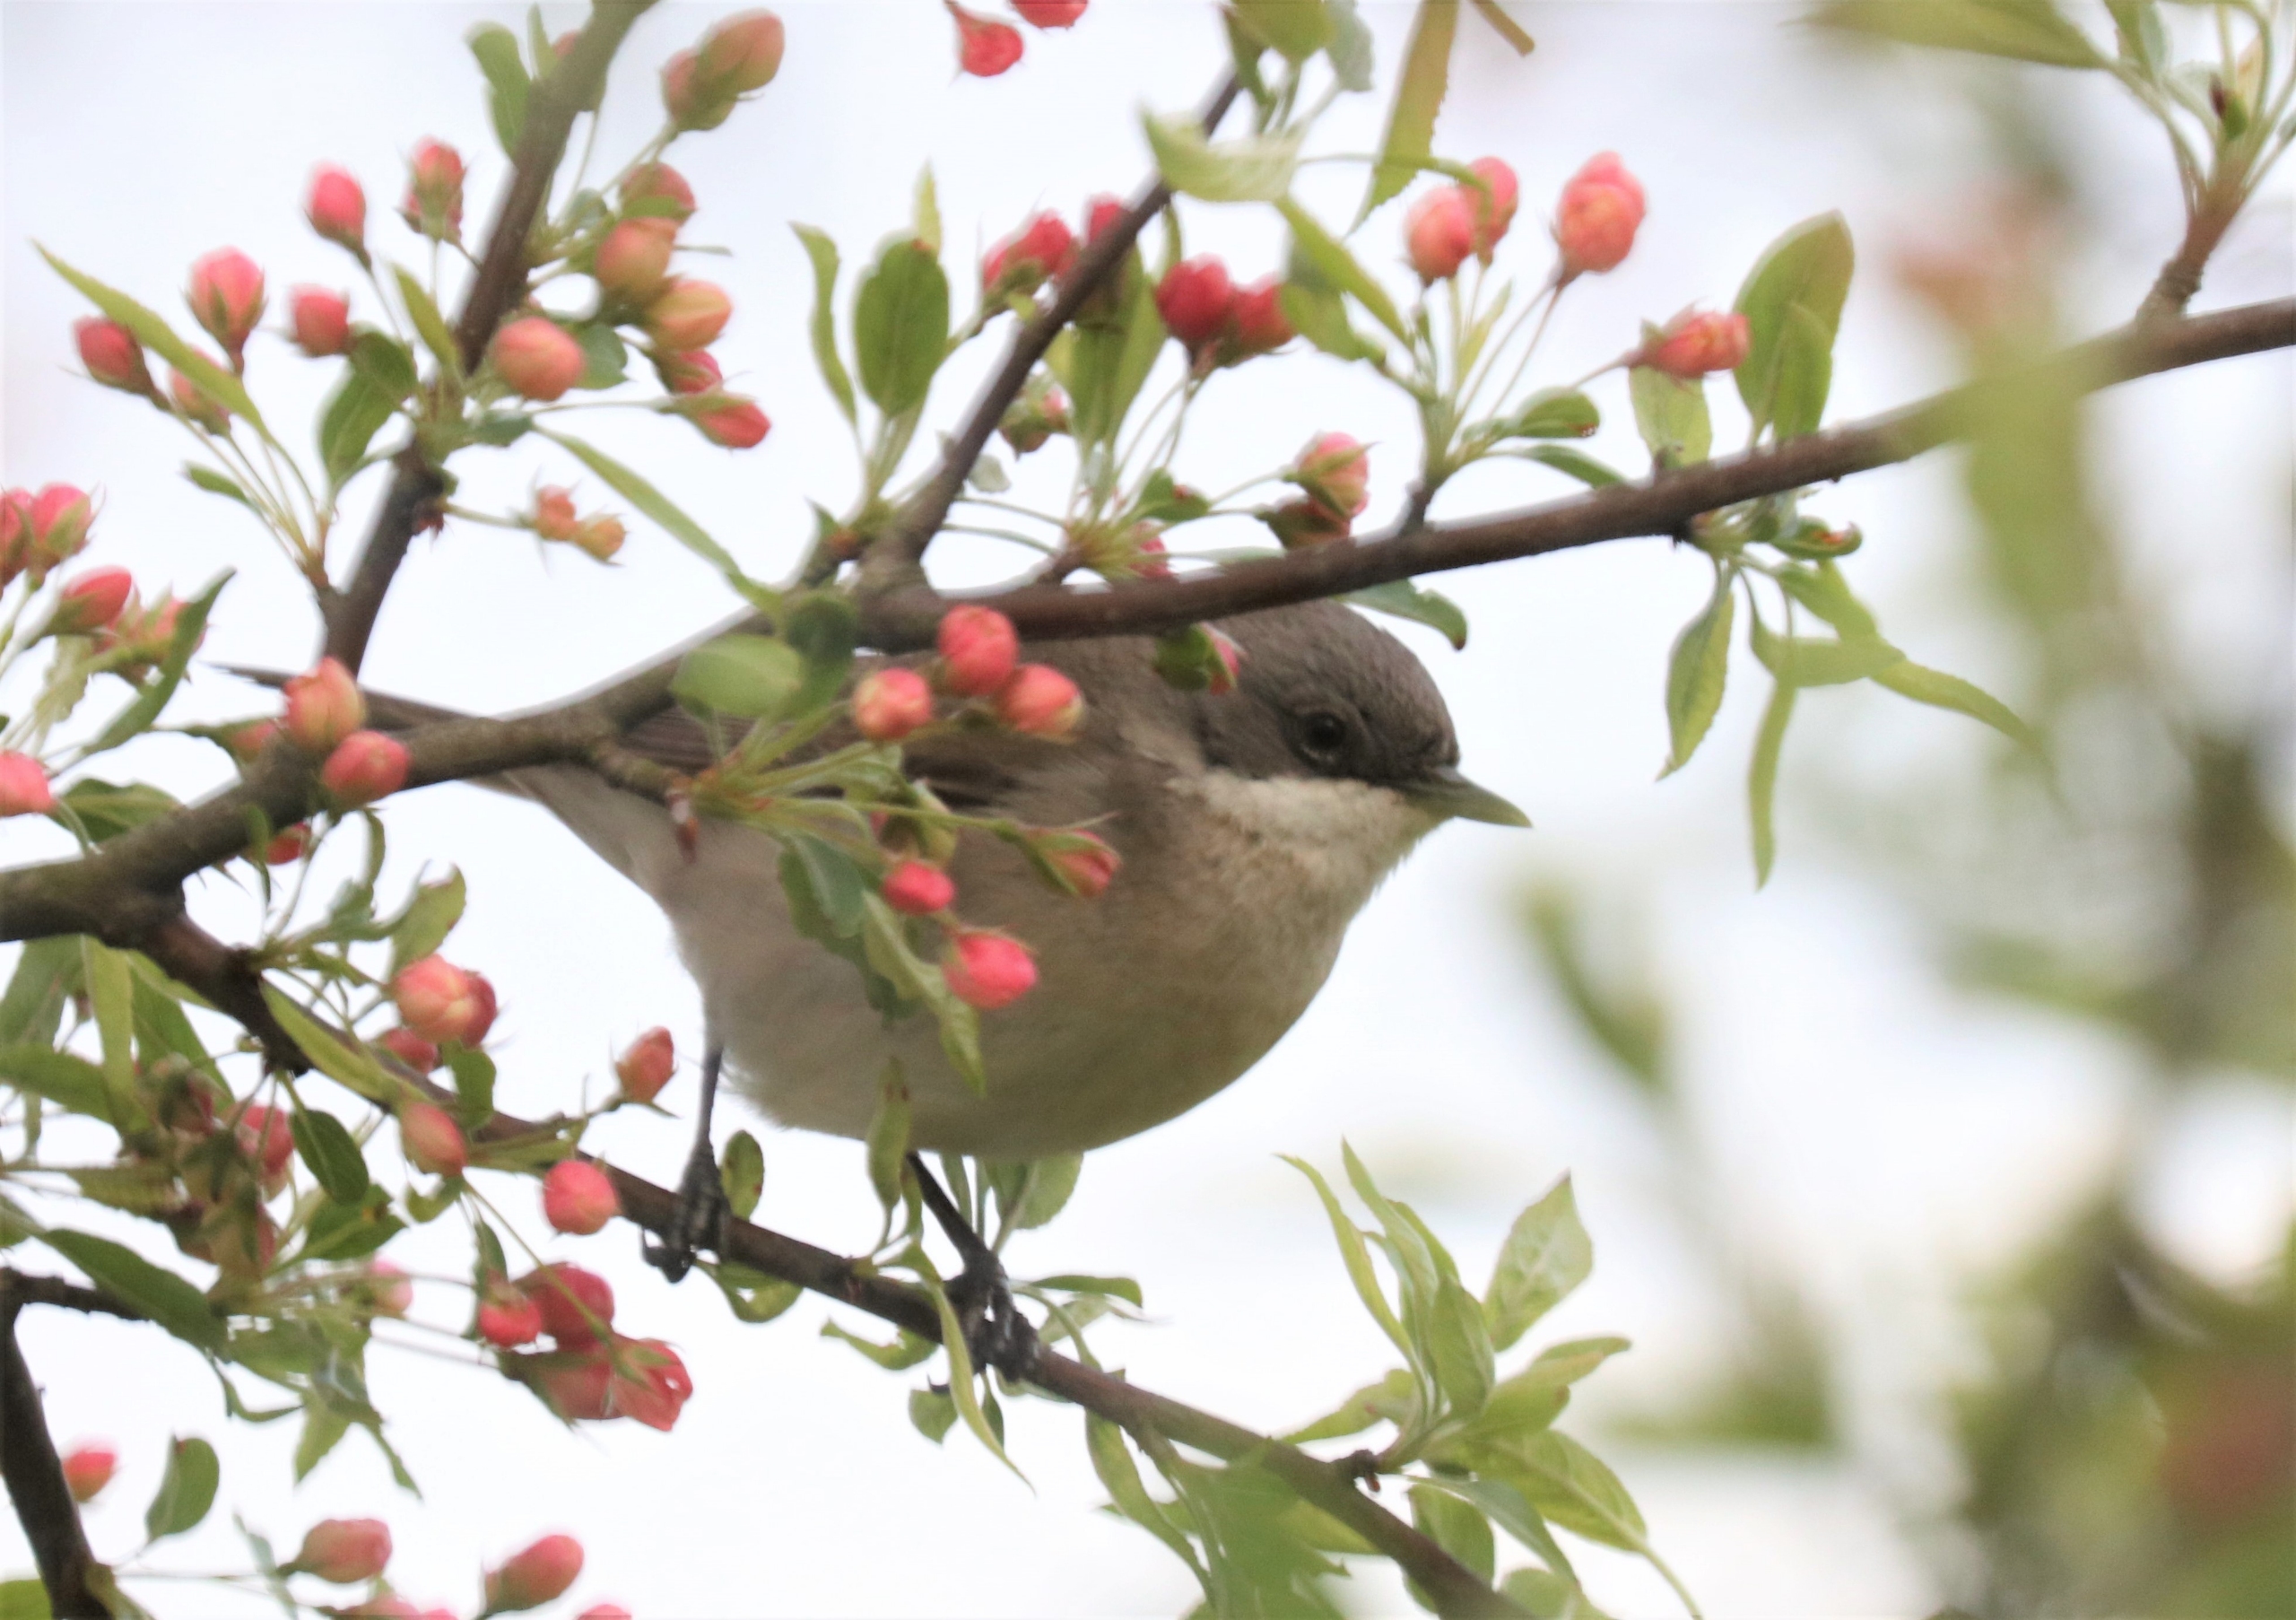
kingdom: Animalia
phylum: Chordata
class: Aves
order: Passeriformes
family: Sylviidae
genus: Sylvia
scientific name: Sylvia curruca
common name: Gærdesanger
